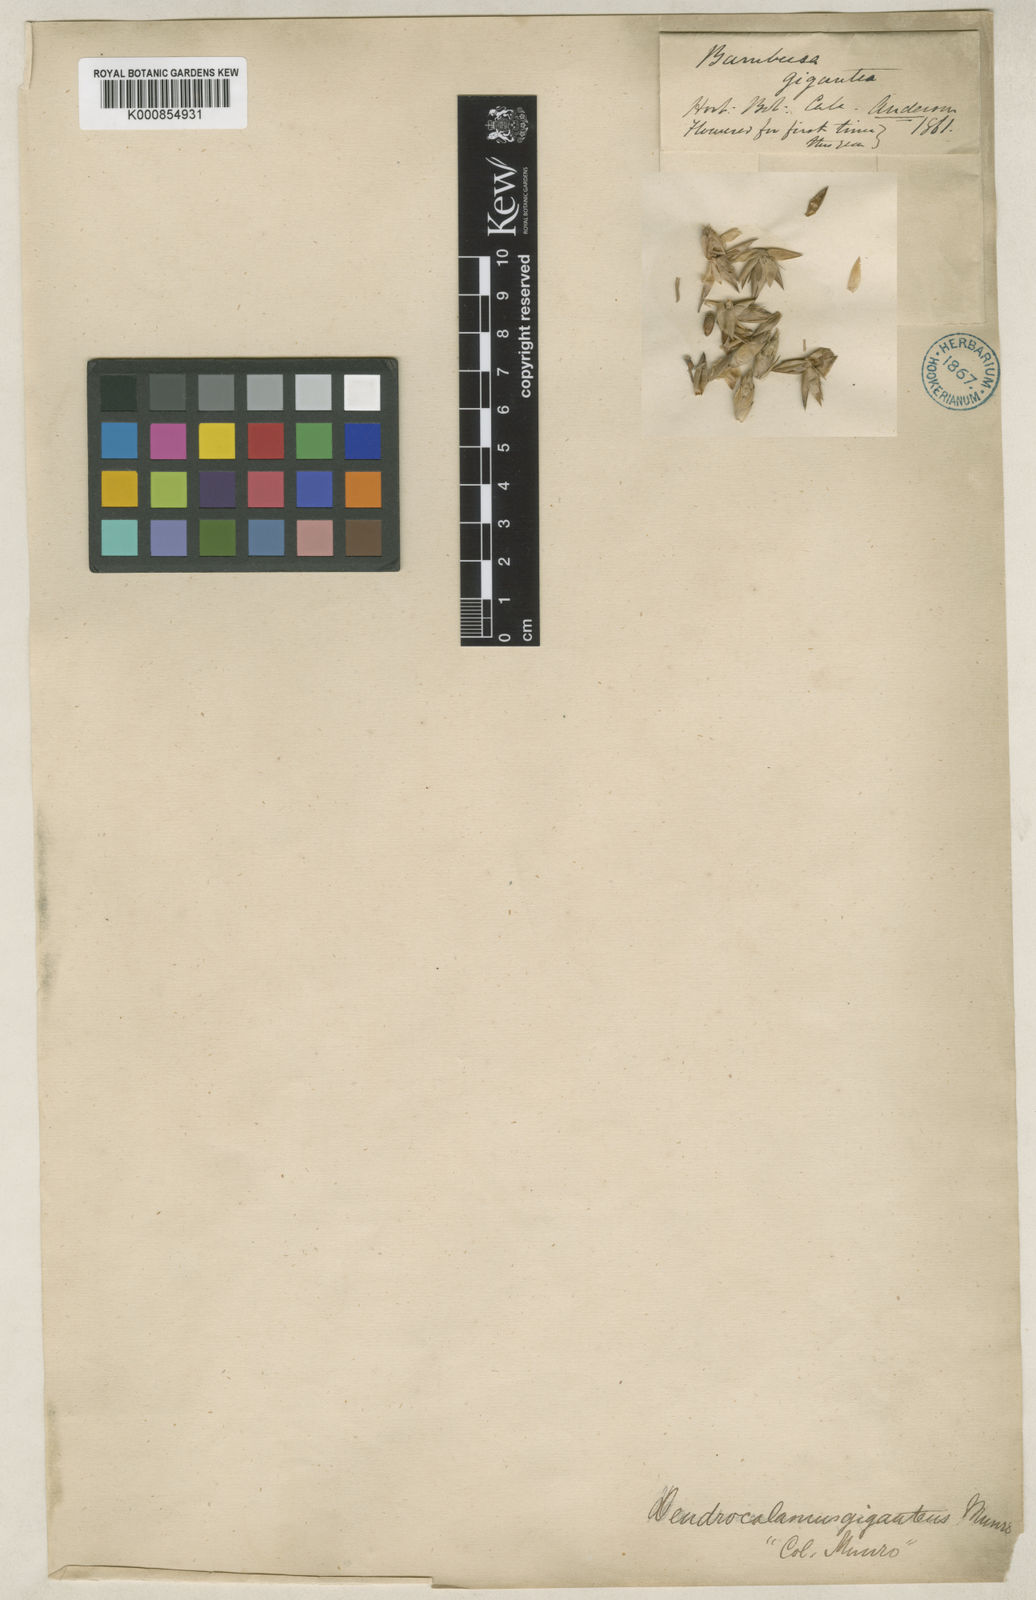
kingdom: Plantae
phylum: Tracheophyta
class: Liliopsida
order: Poales
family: Poaceae
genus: Dendrocalamus
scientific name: Dendrocalamus giganteus
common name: Giant bamboo
